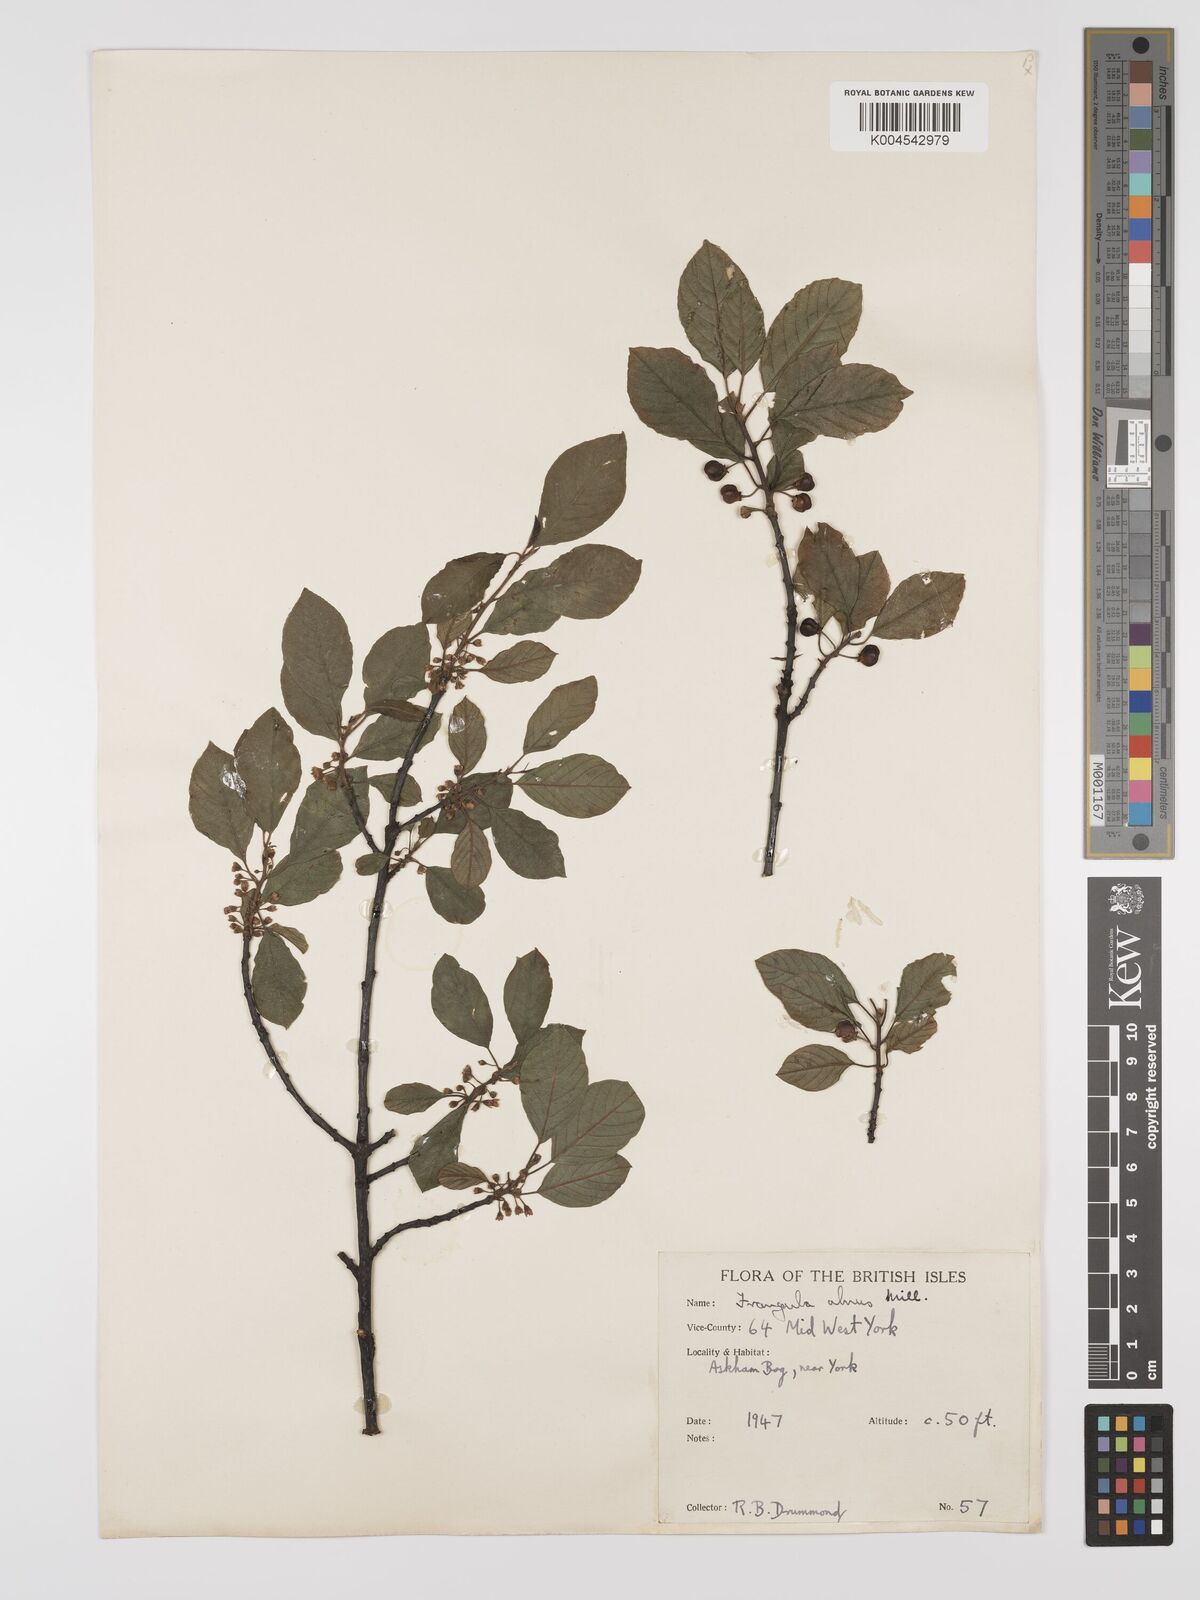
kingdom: Plantae
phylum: Tracheophyta
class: Magnoliopsida
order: Rosales
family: Rhamnaceae
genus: Frangula
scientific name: Frangula alnus
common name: Alder buckthorn
